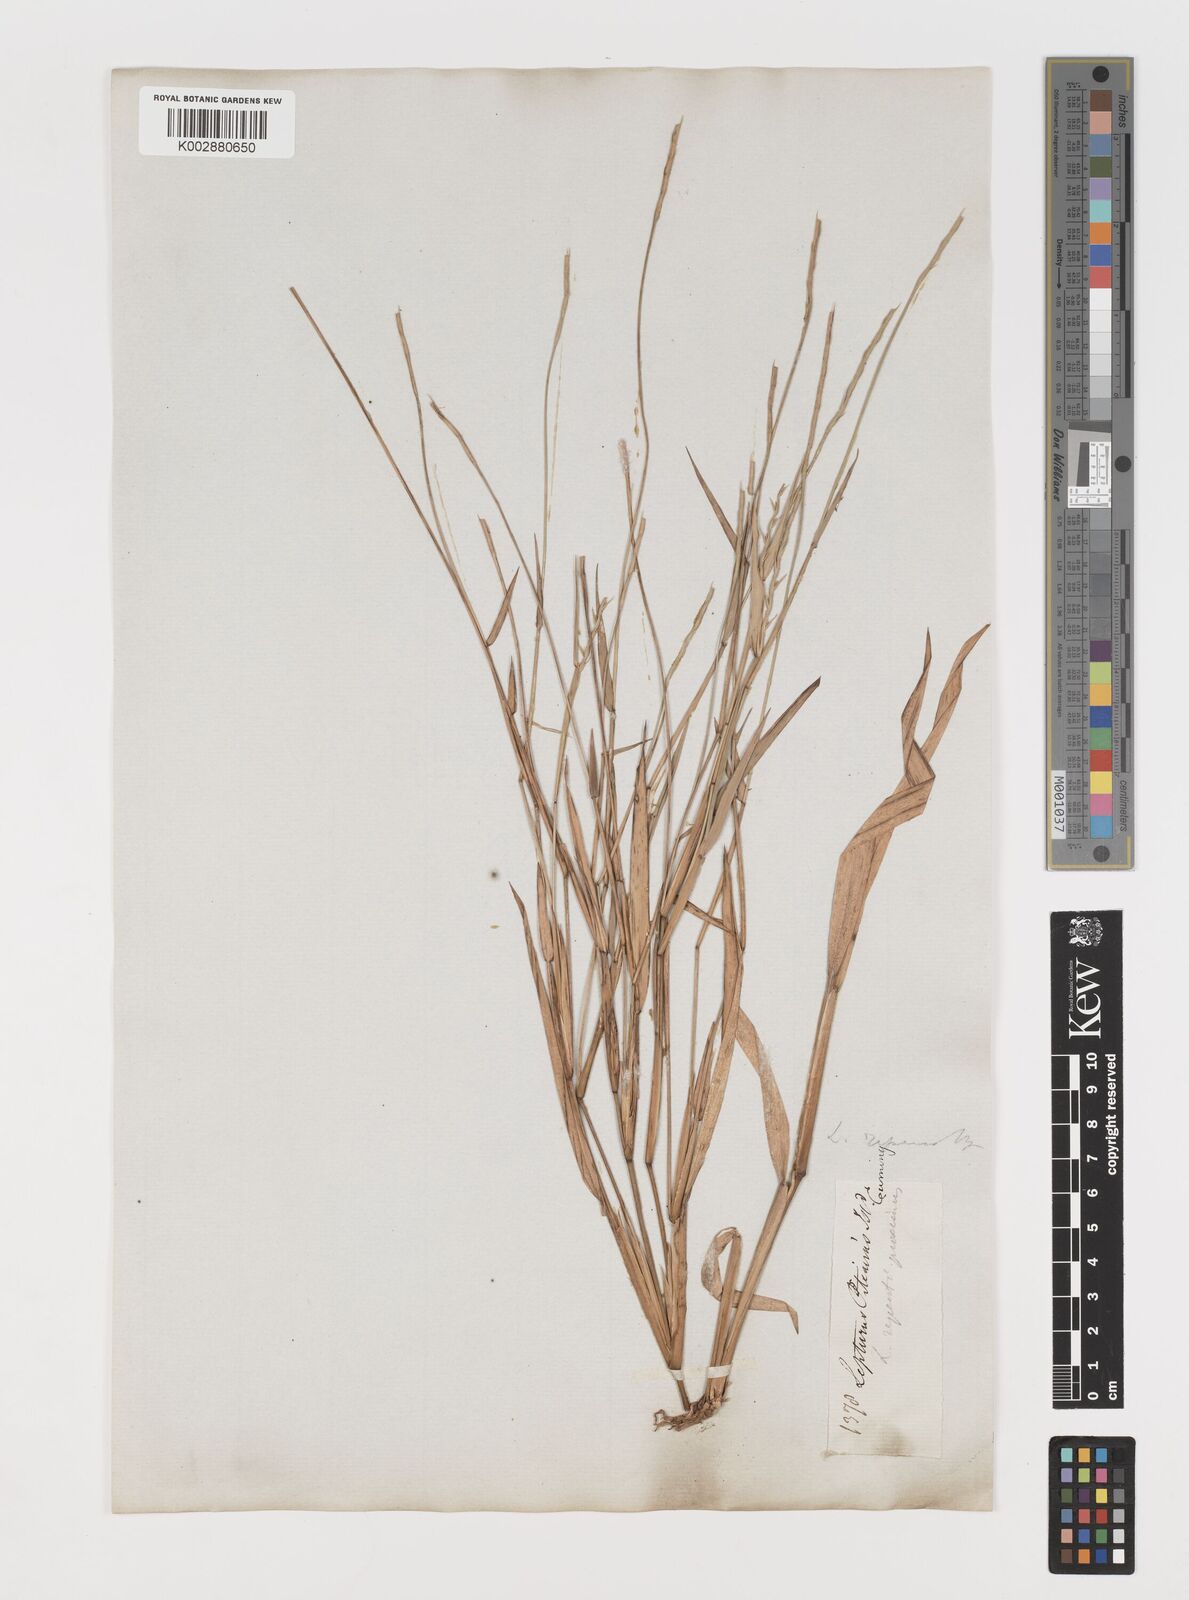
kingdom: Plantae
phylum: Tracheophyta
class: Liliopsida
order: Poales
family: Poaceae
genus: Lepturus
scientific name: Lepturus
